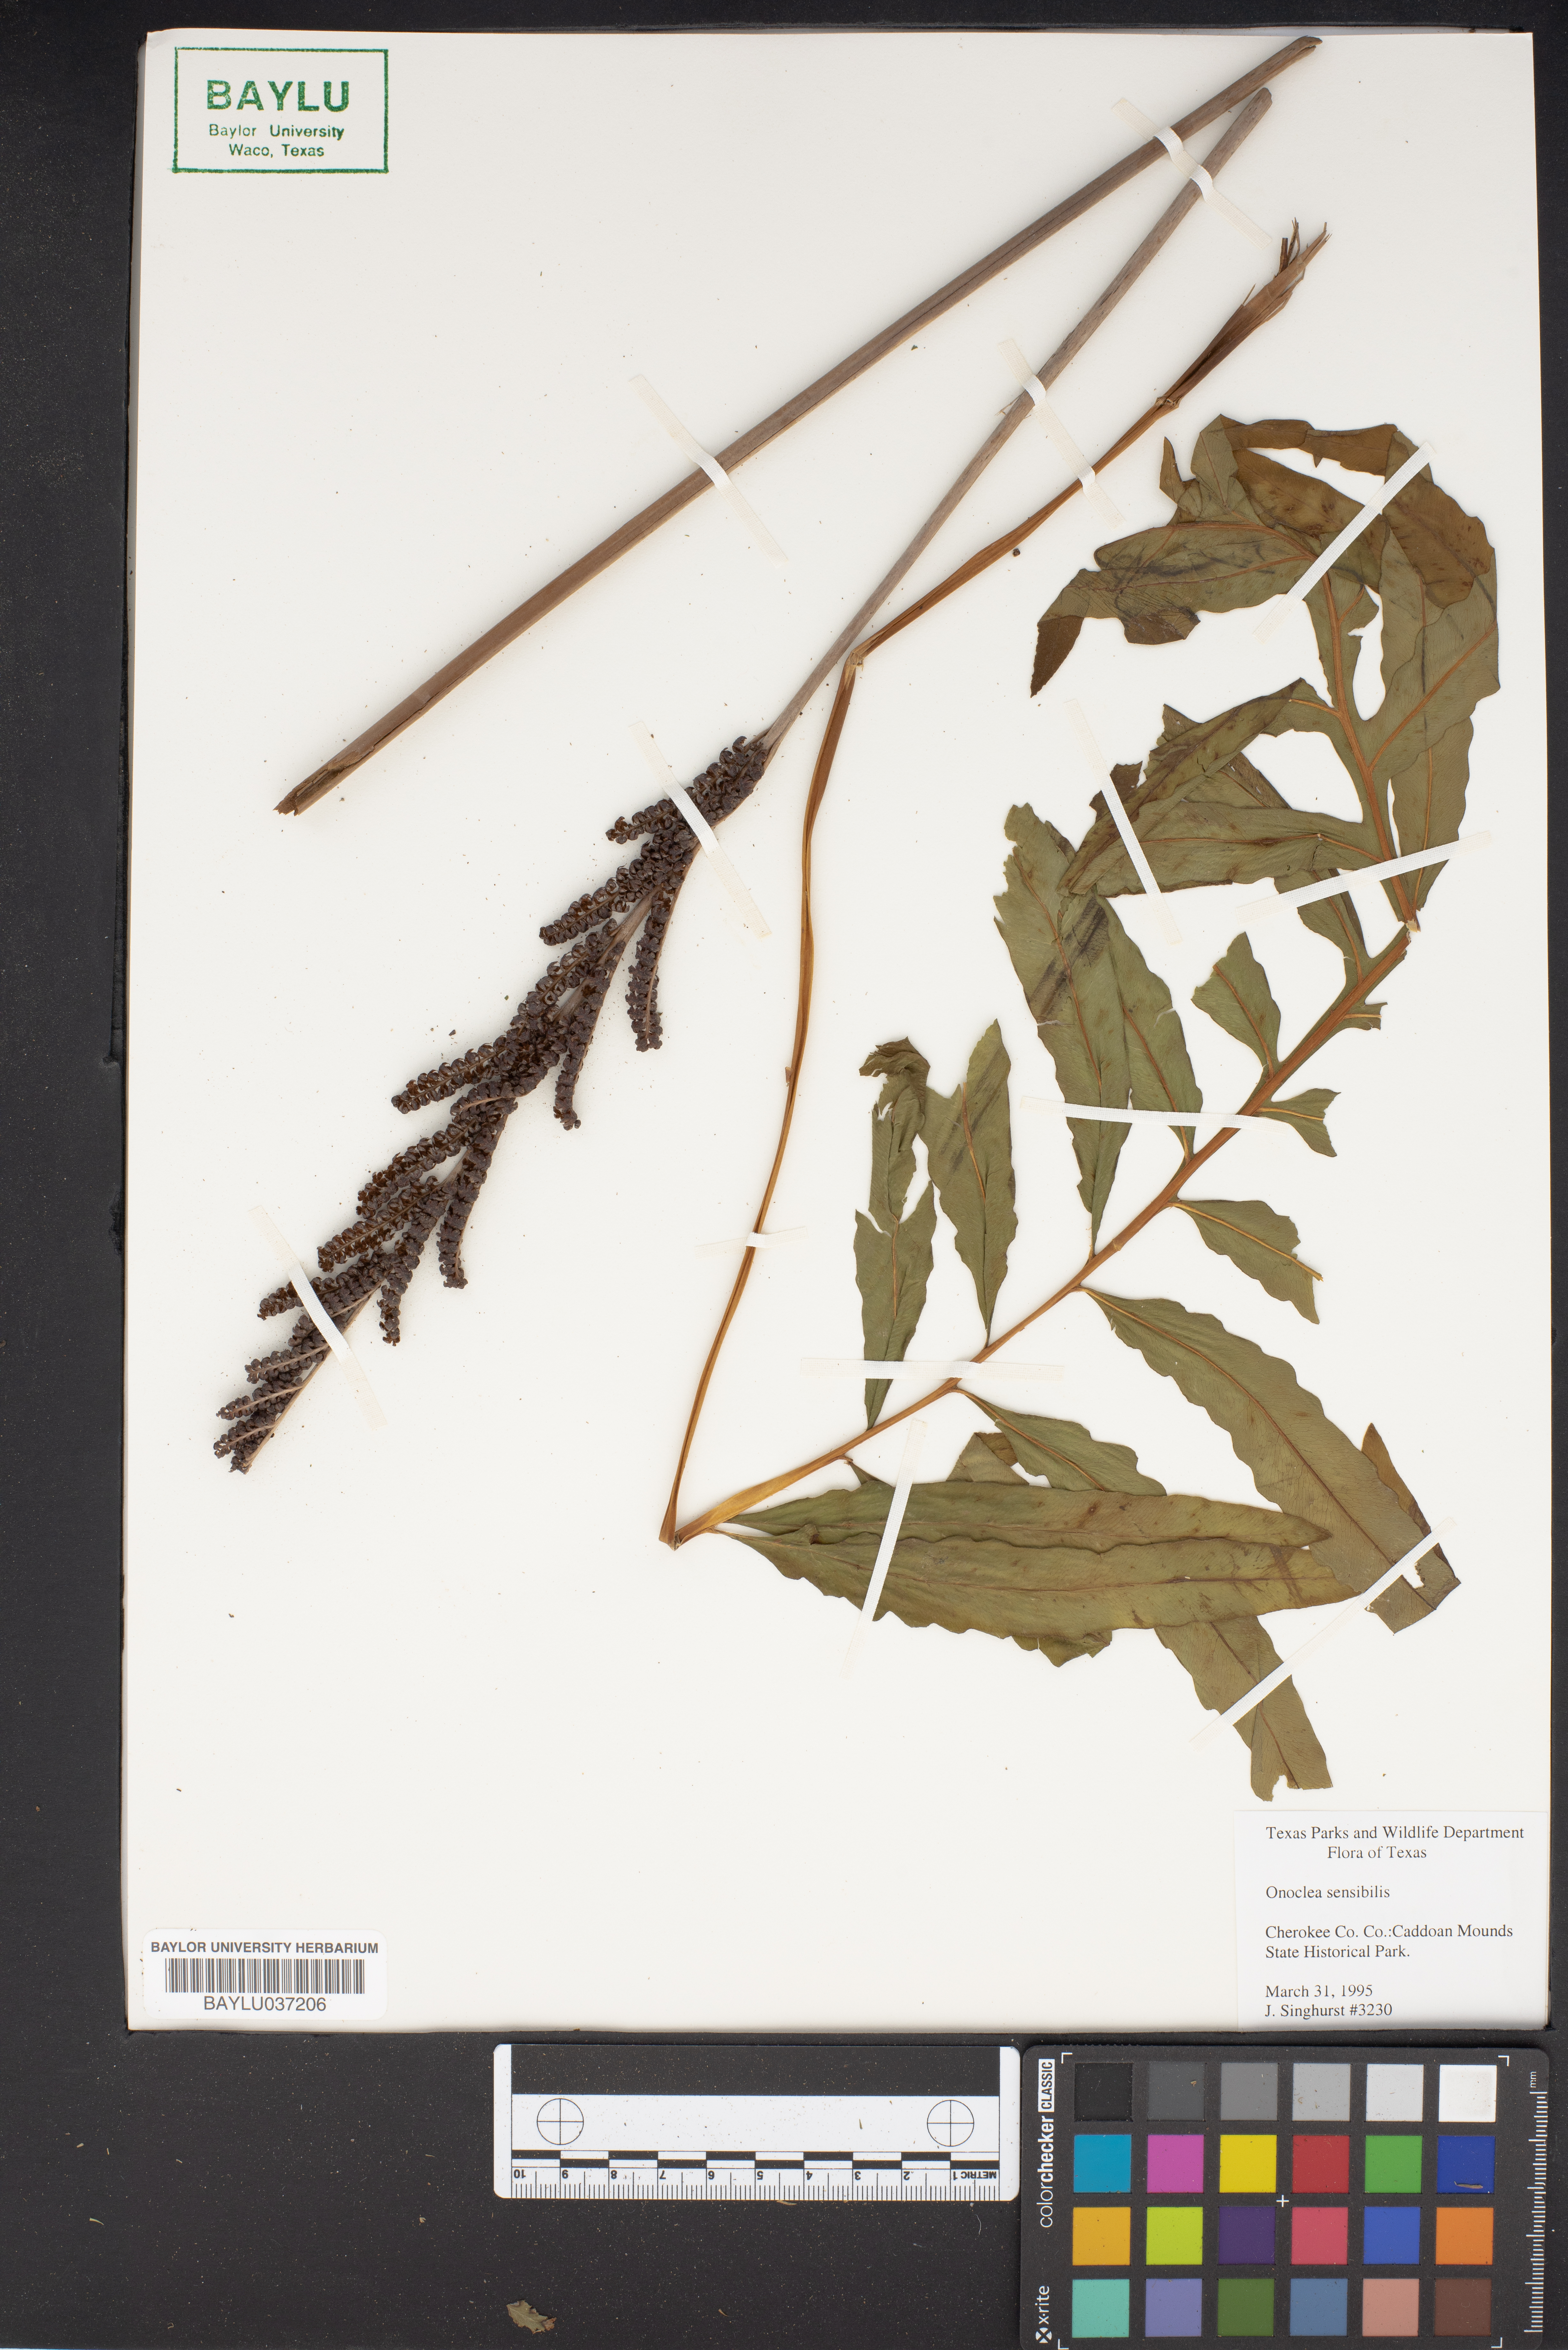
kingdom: Plantae
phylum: Tracheophyta
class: Polypodiopsida
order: Polypodiales
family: Onocleaceae
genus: Onoclea
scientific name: Onoclea sensibilis
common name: Sensitive fern
